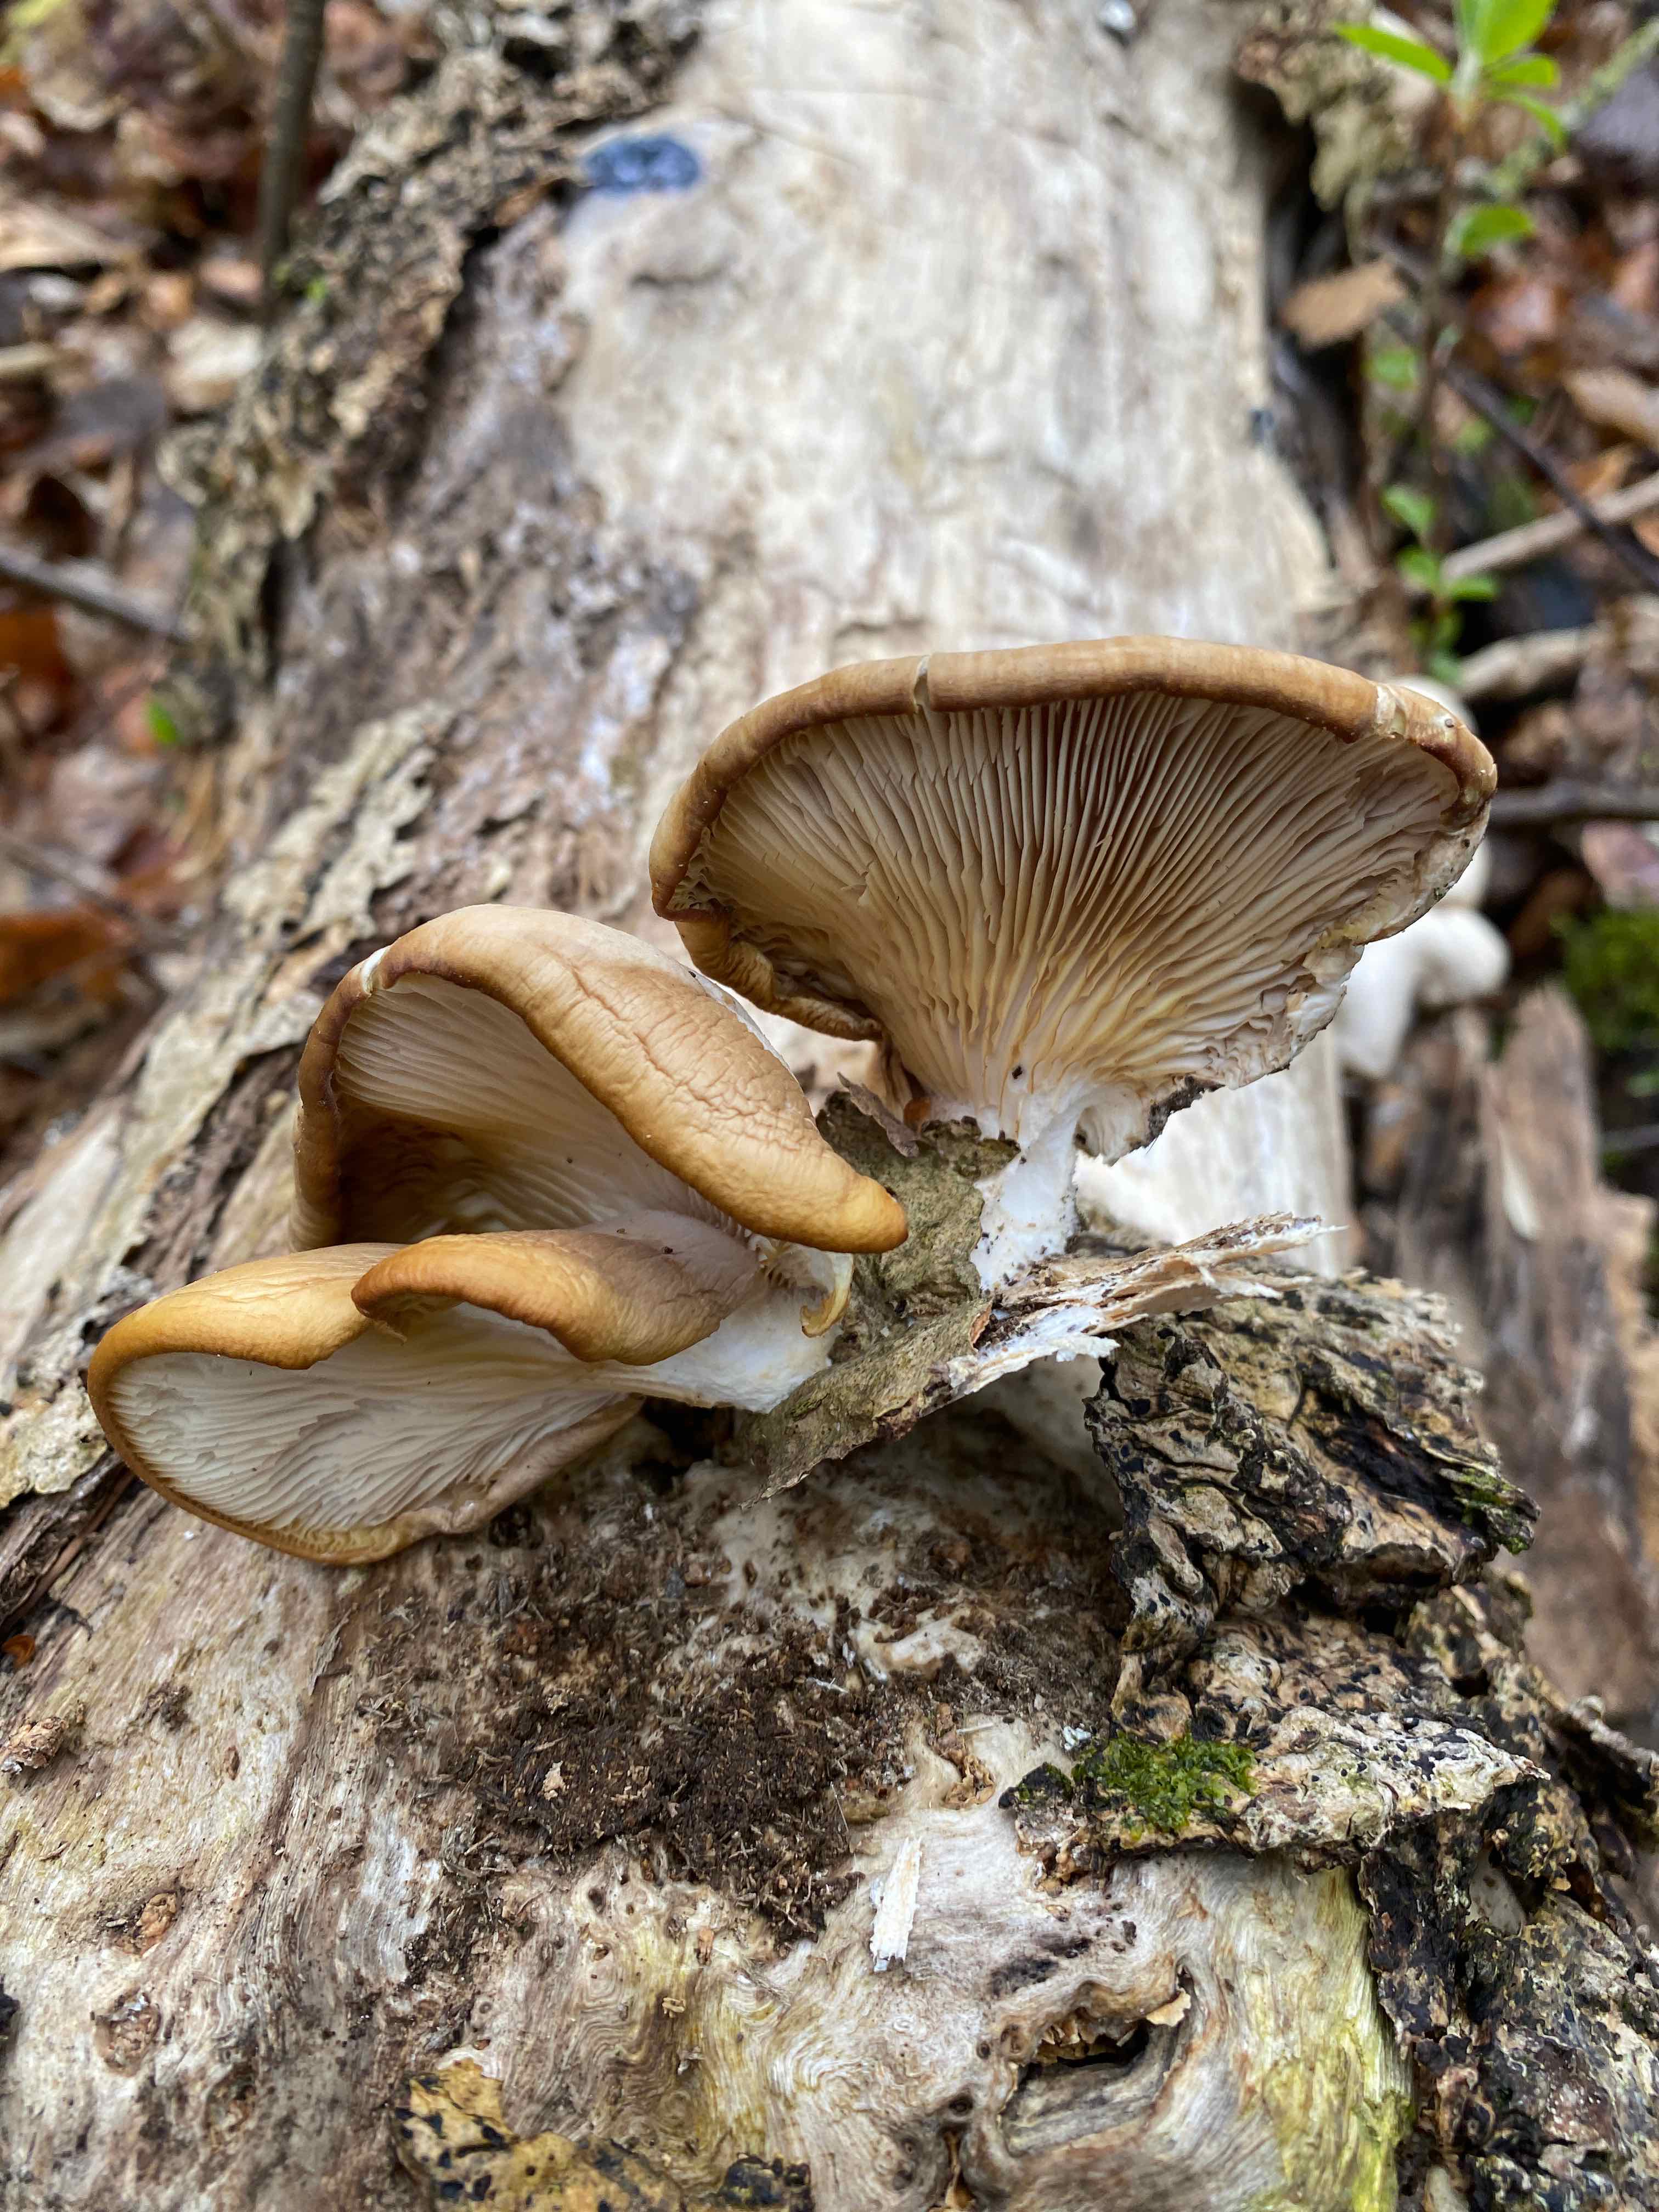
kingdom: Fungi
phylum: Basidiomycota
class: Agaricomycetes
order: Agaricales
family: Pleurotaceae
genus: Pleurotus
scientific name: Pleurotus ostreatus
